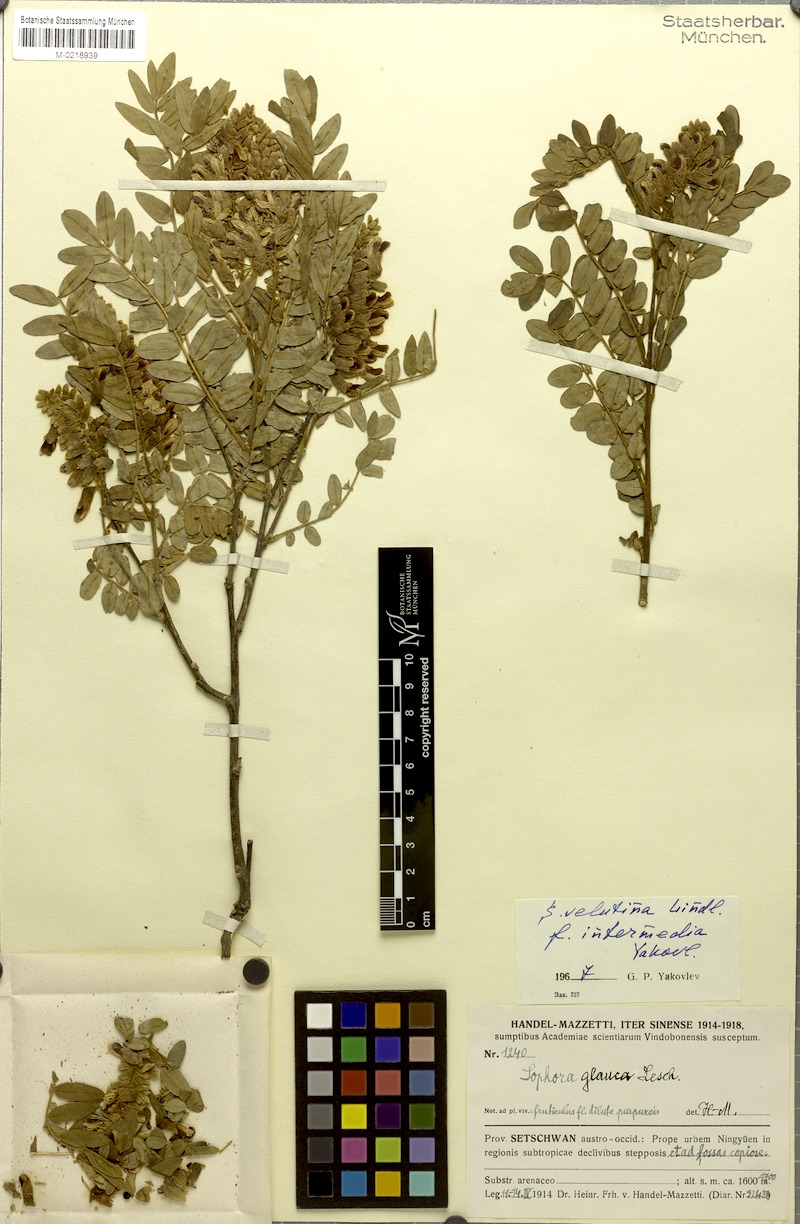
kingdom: Plantae
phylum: Tracheophyta
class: Magnoliopsida
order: Fabales
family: Fabaceae
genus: Sophora
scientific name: Sophora velutina
